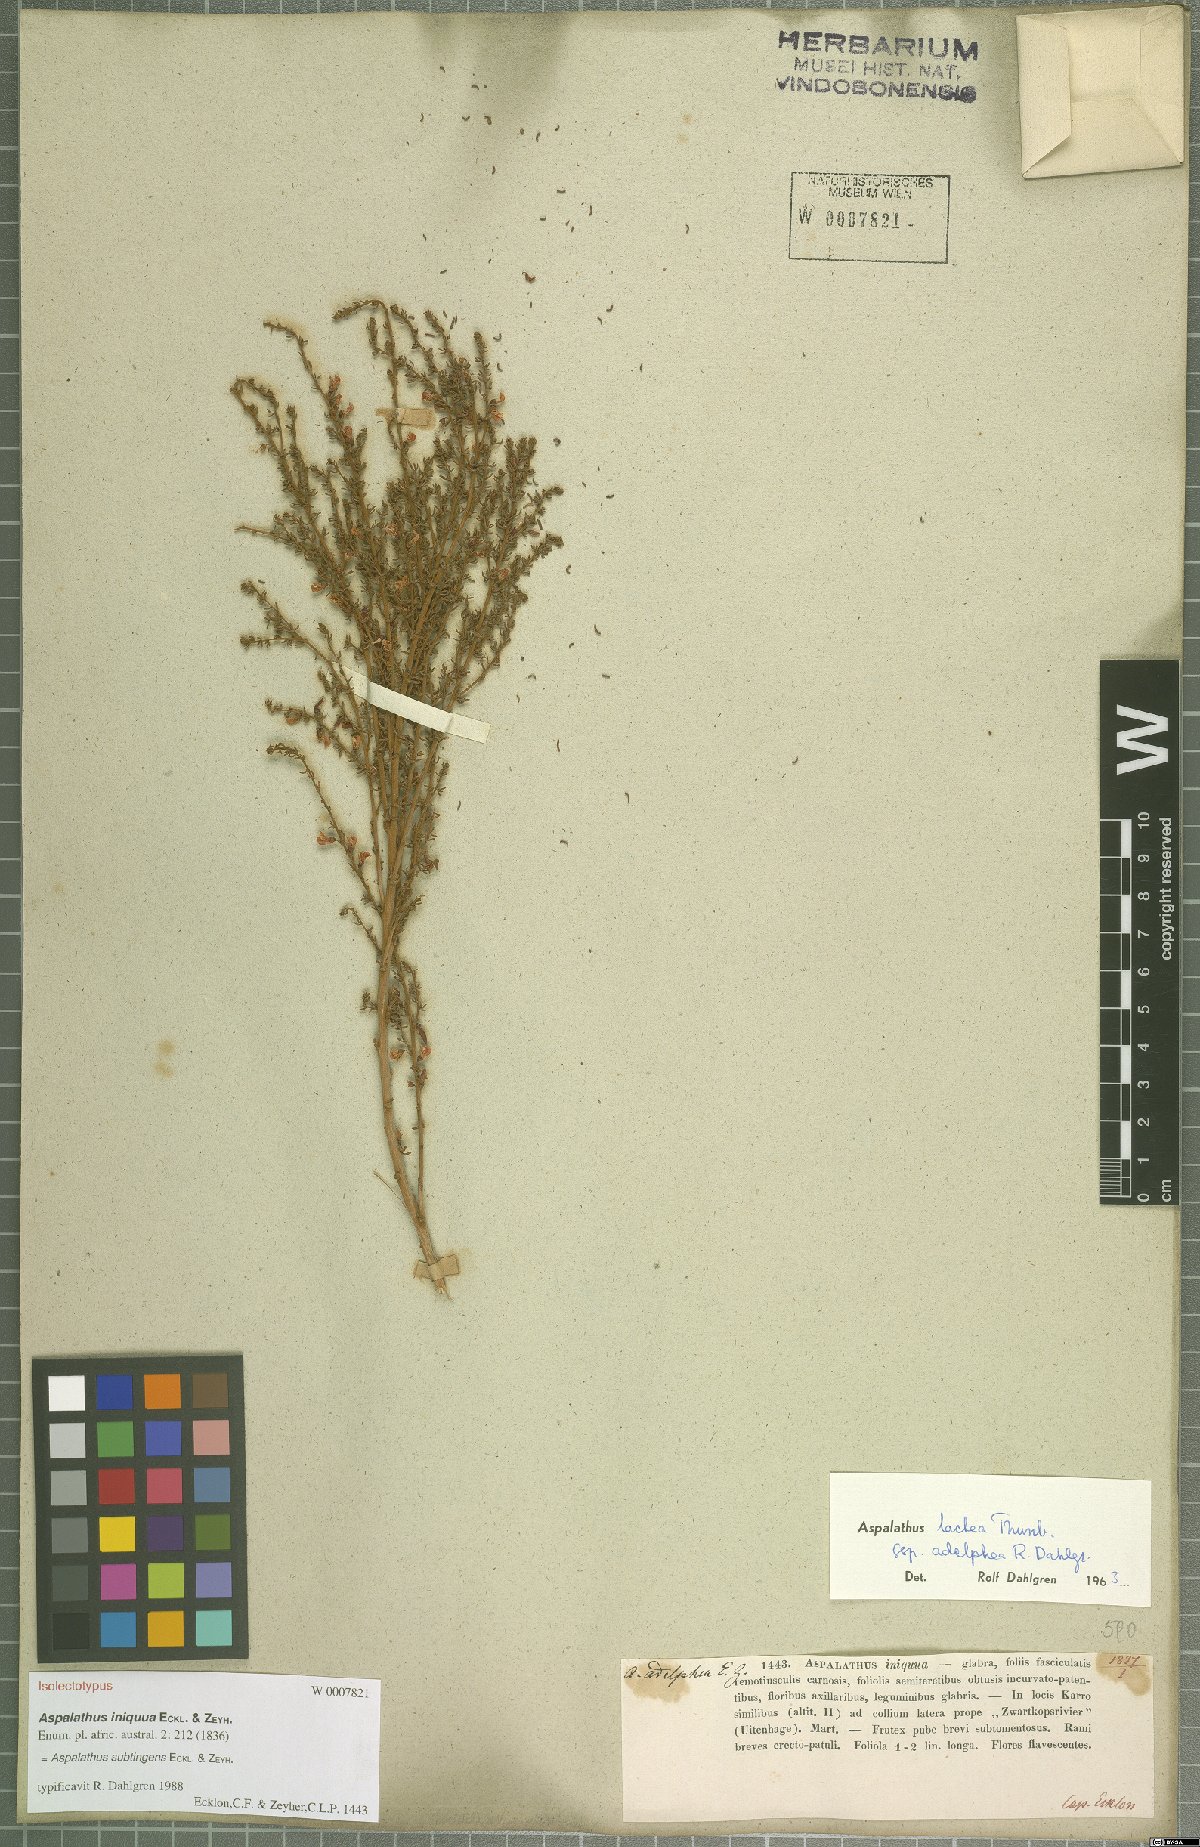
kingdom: Plantae
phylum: Tracheophyta
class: Magnoliopsida
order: Fabales
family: Fabaceae
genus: Aspalathus
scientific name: Aspalathus subtingens
